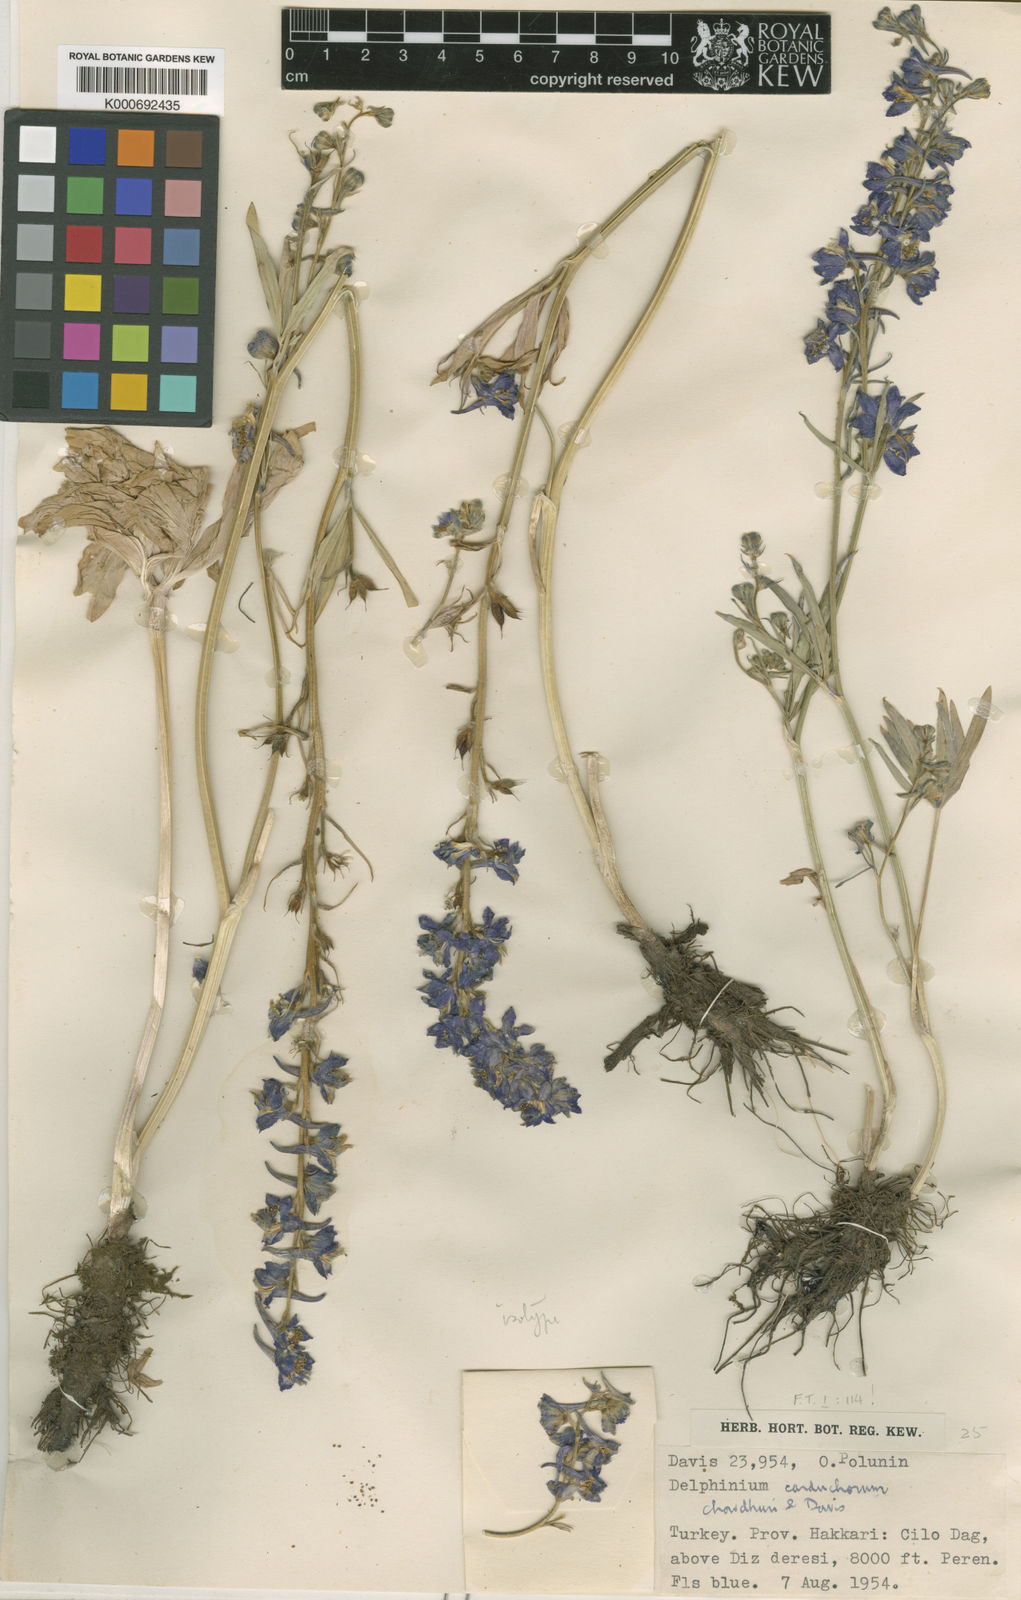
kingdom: Plantae
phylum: Tracheophyta
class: Magnoliopsida
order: Ranunculales
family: Ranunculaceae
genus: Delphinium
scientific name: Delphinium carduchorum
